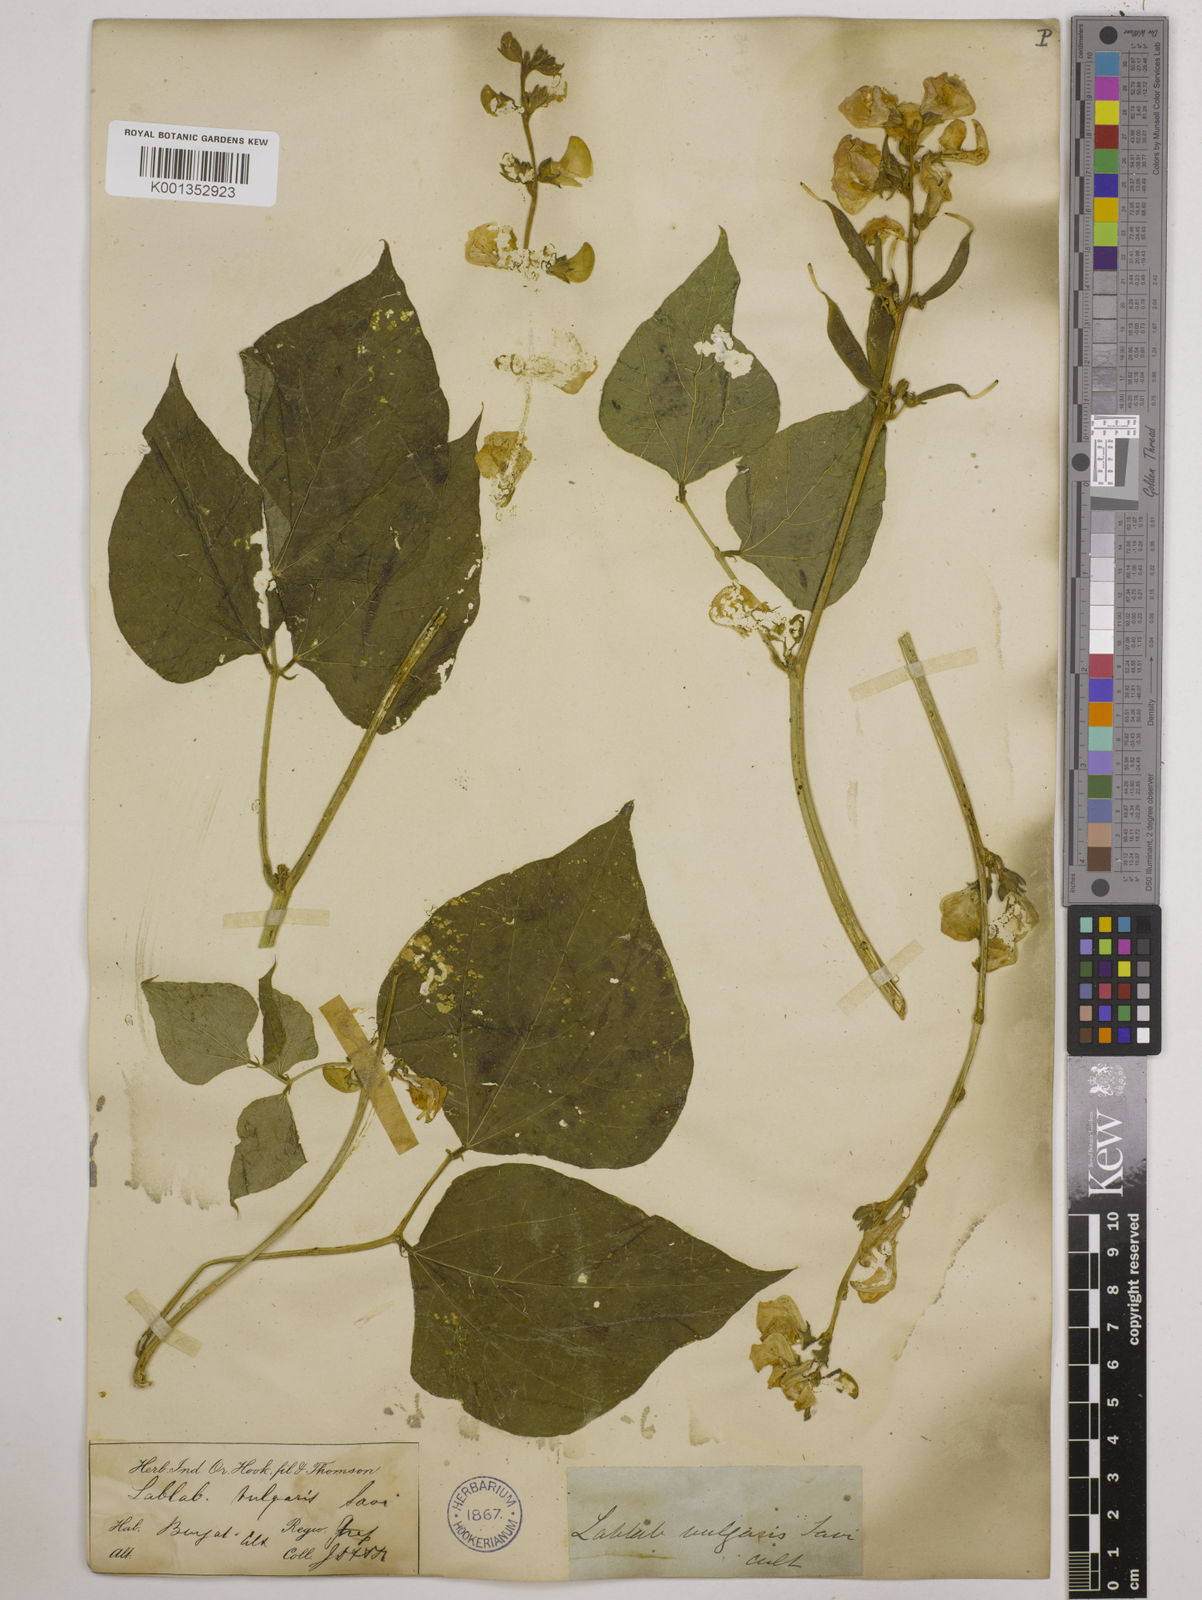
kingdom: Plantae
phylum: Tracheophyta
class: Magnoliopsida
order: Fabales
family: Fabaceae
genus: Lablab
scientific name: Lablab purpureus
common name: Lablab-bean
